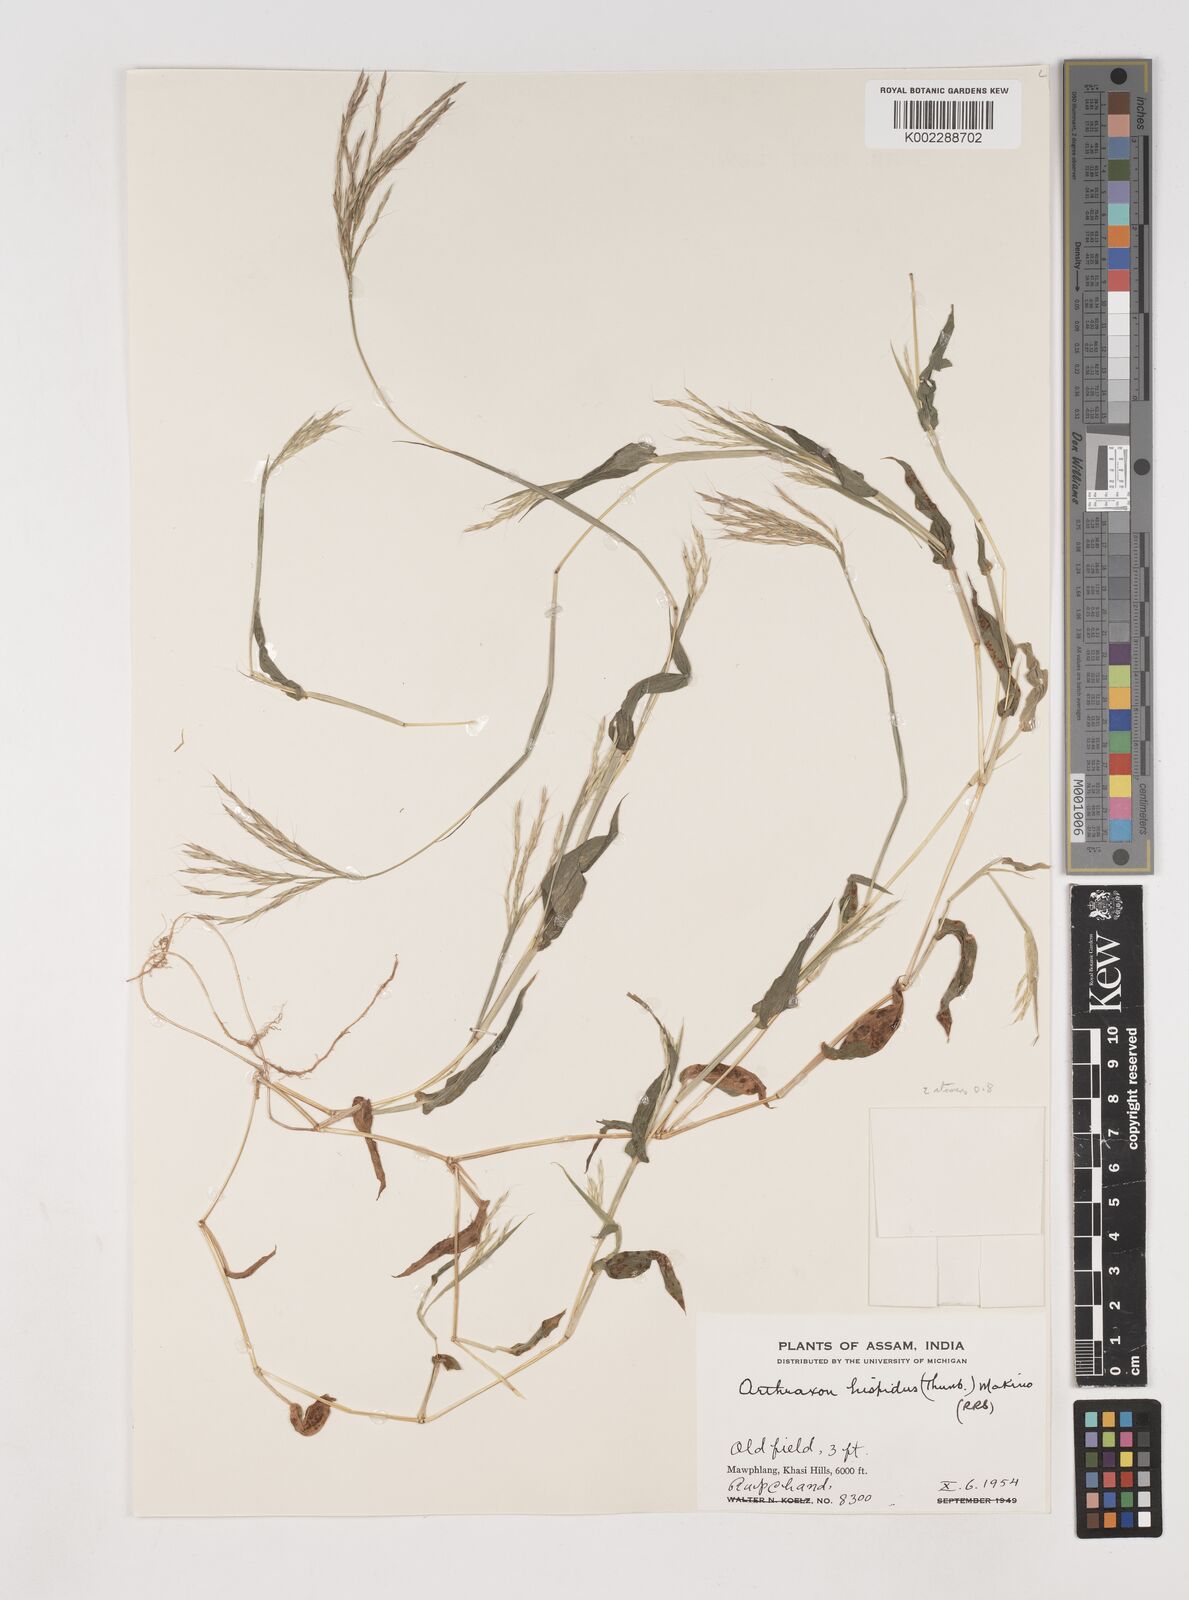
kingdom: Plantae
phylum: Tracheophyta
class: Liliopsida
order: Poales
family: Poaceae
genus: Arthraxon
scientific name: Arthraxon hispidus
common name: Small carpgrass
